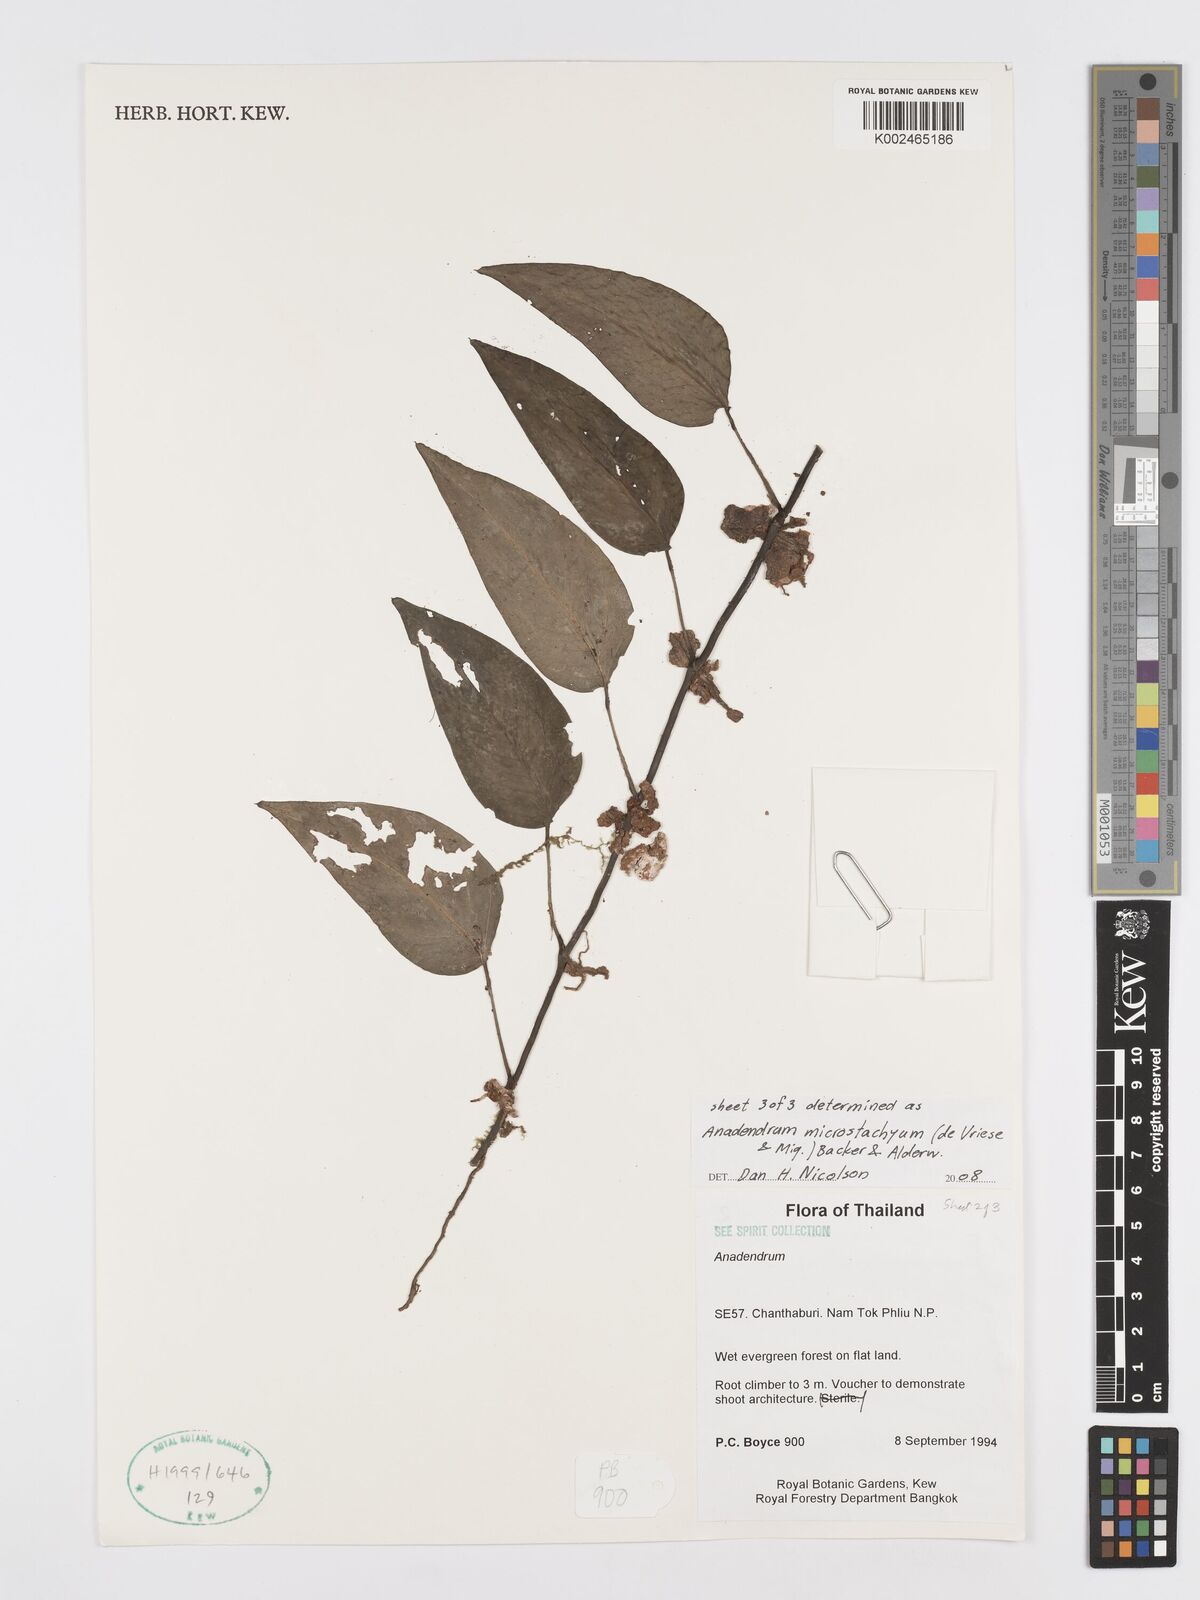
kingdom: Plantae
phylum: Tracheophyta
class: Liliopsida
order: Alismatales
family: Araceae
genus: Anadendrum
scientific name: Anadendrum microstachyum
